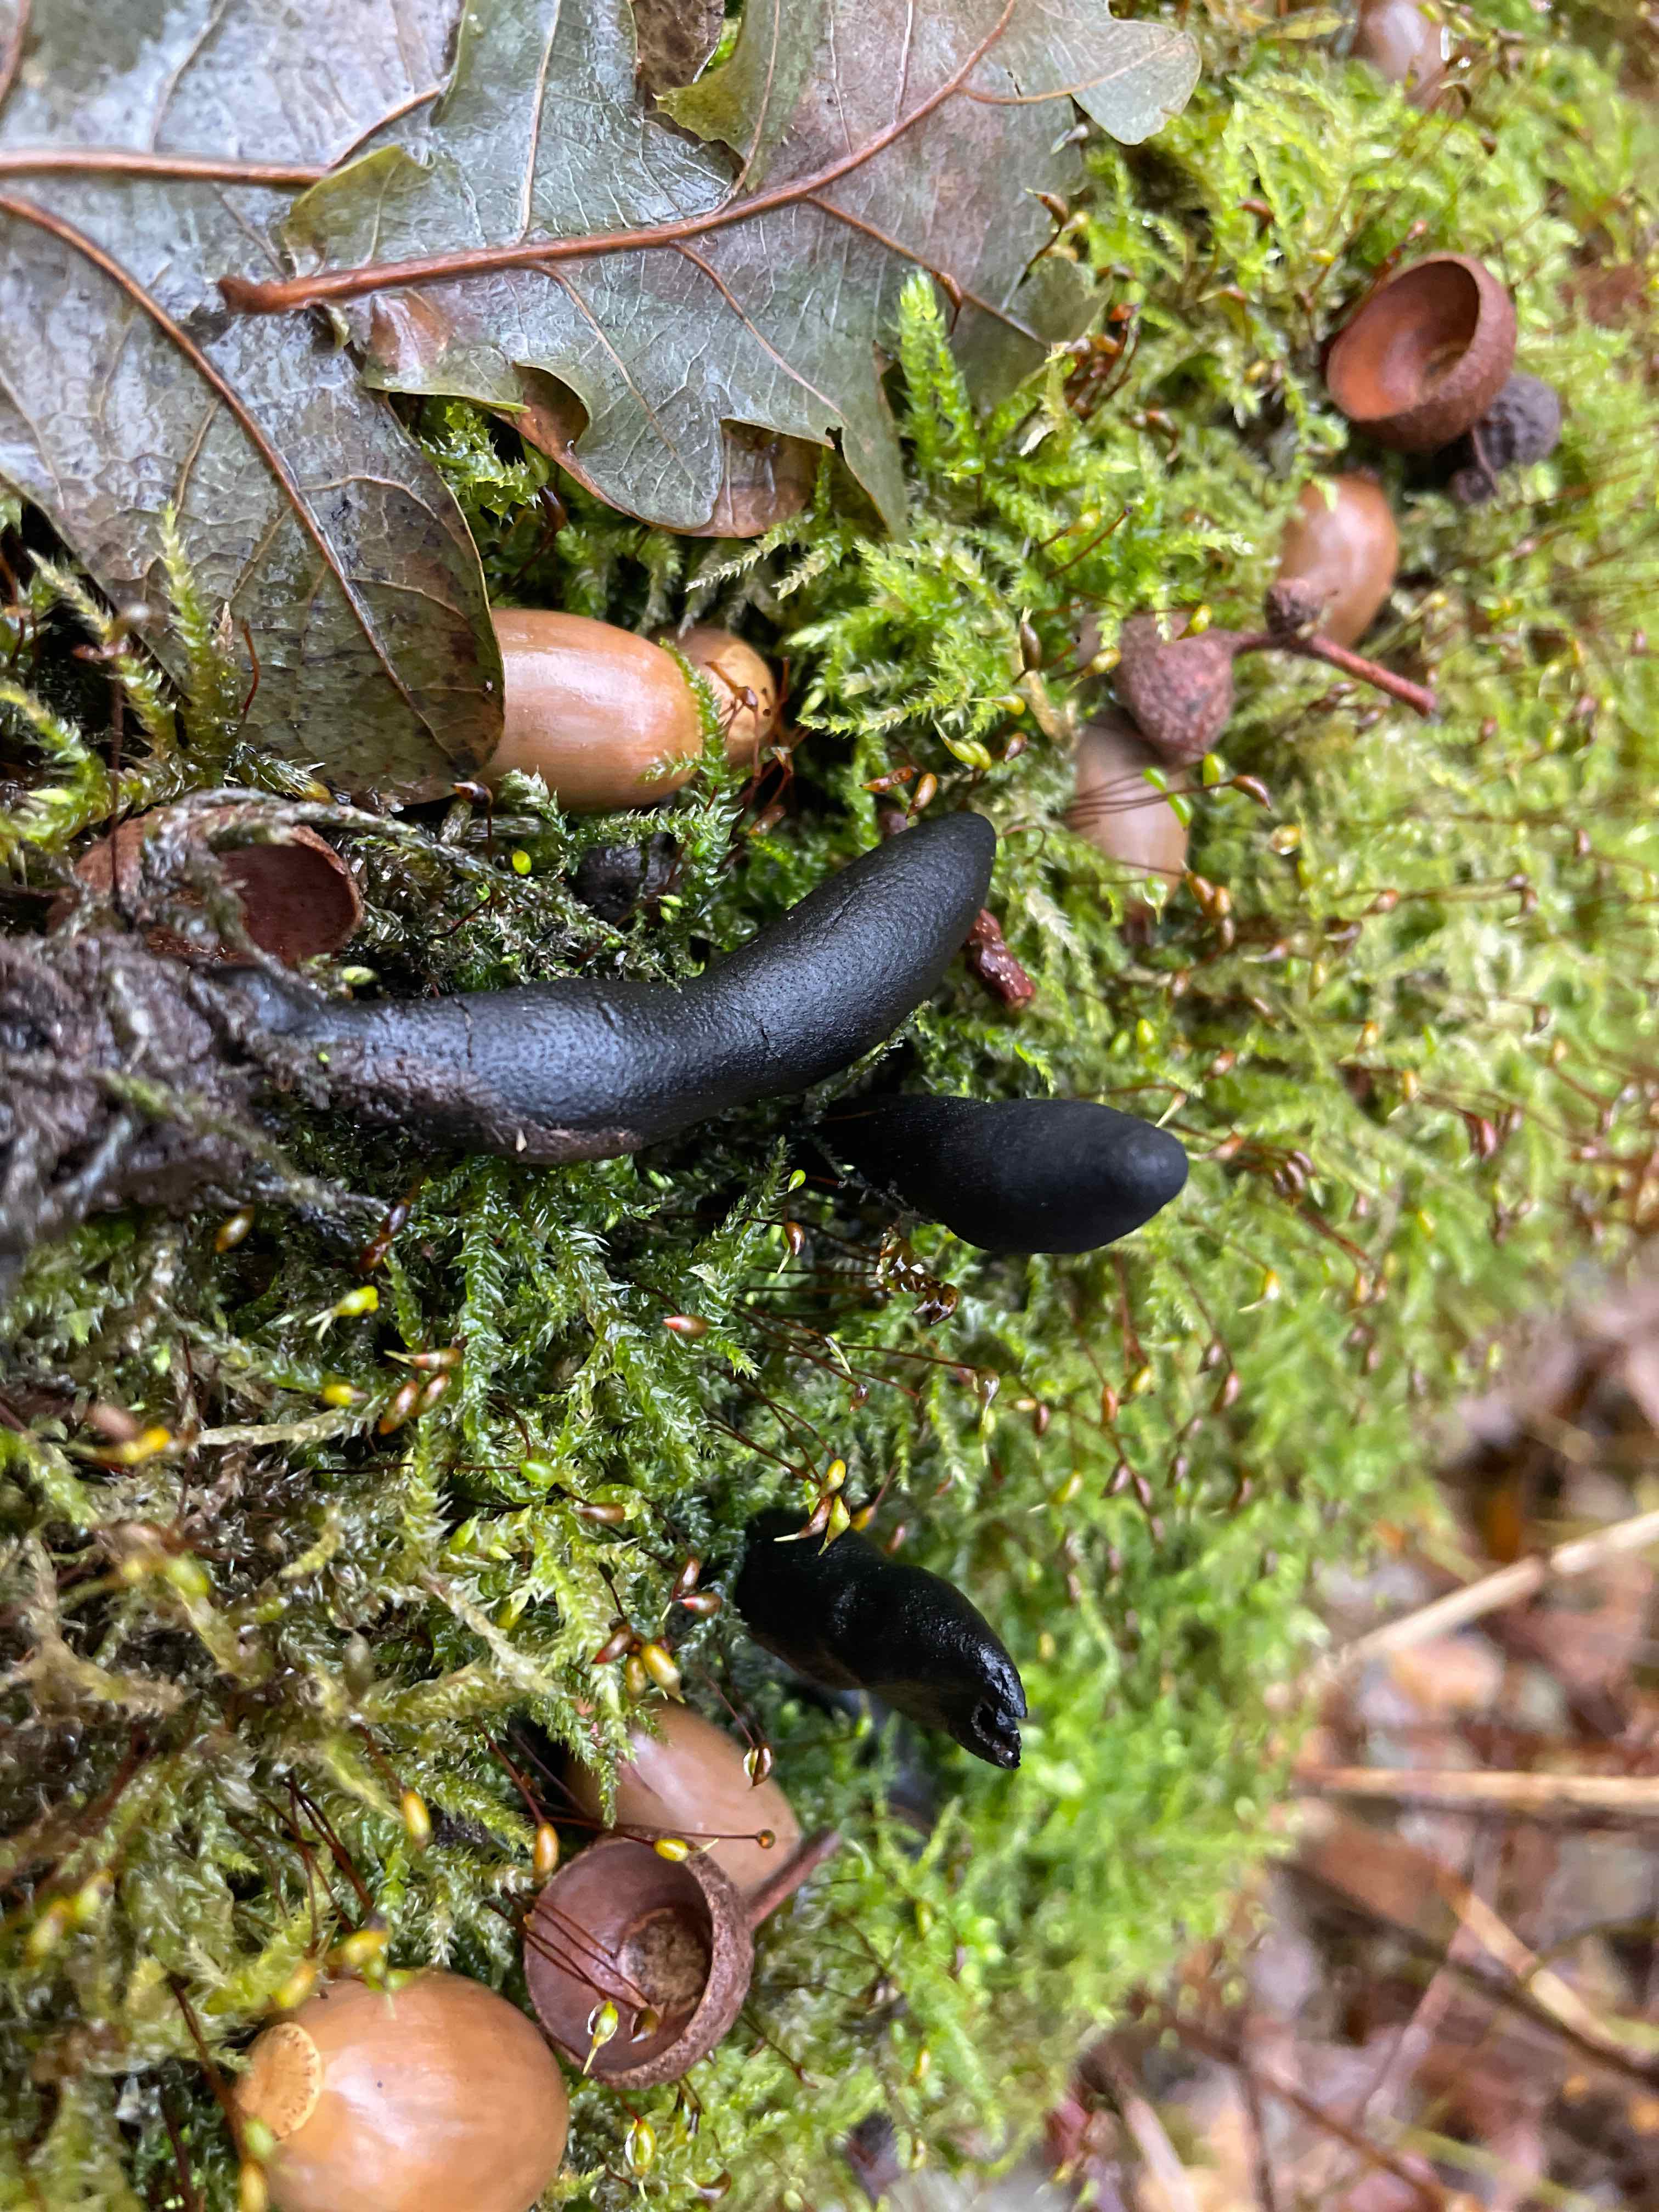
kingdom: Fungi
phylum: Ascomycota
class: Sordariomycetes
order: Xylariales
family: Xylariaceae
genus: Xylaria
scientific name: Xylaria longipes
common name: slank stødsvamp
